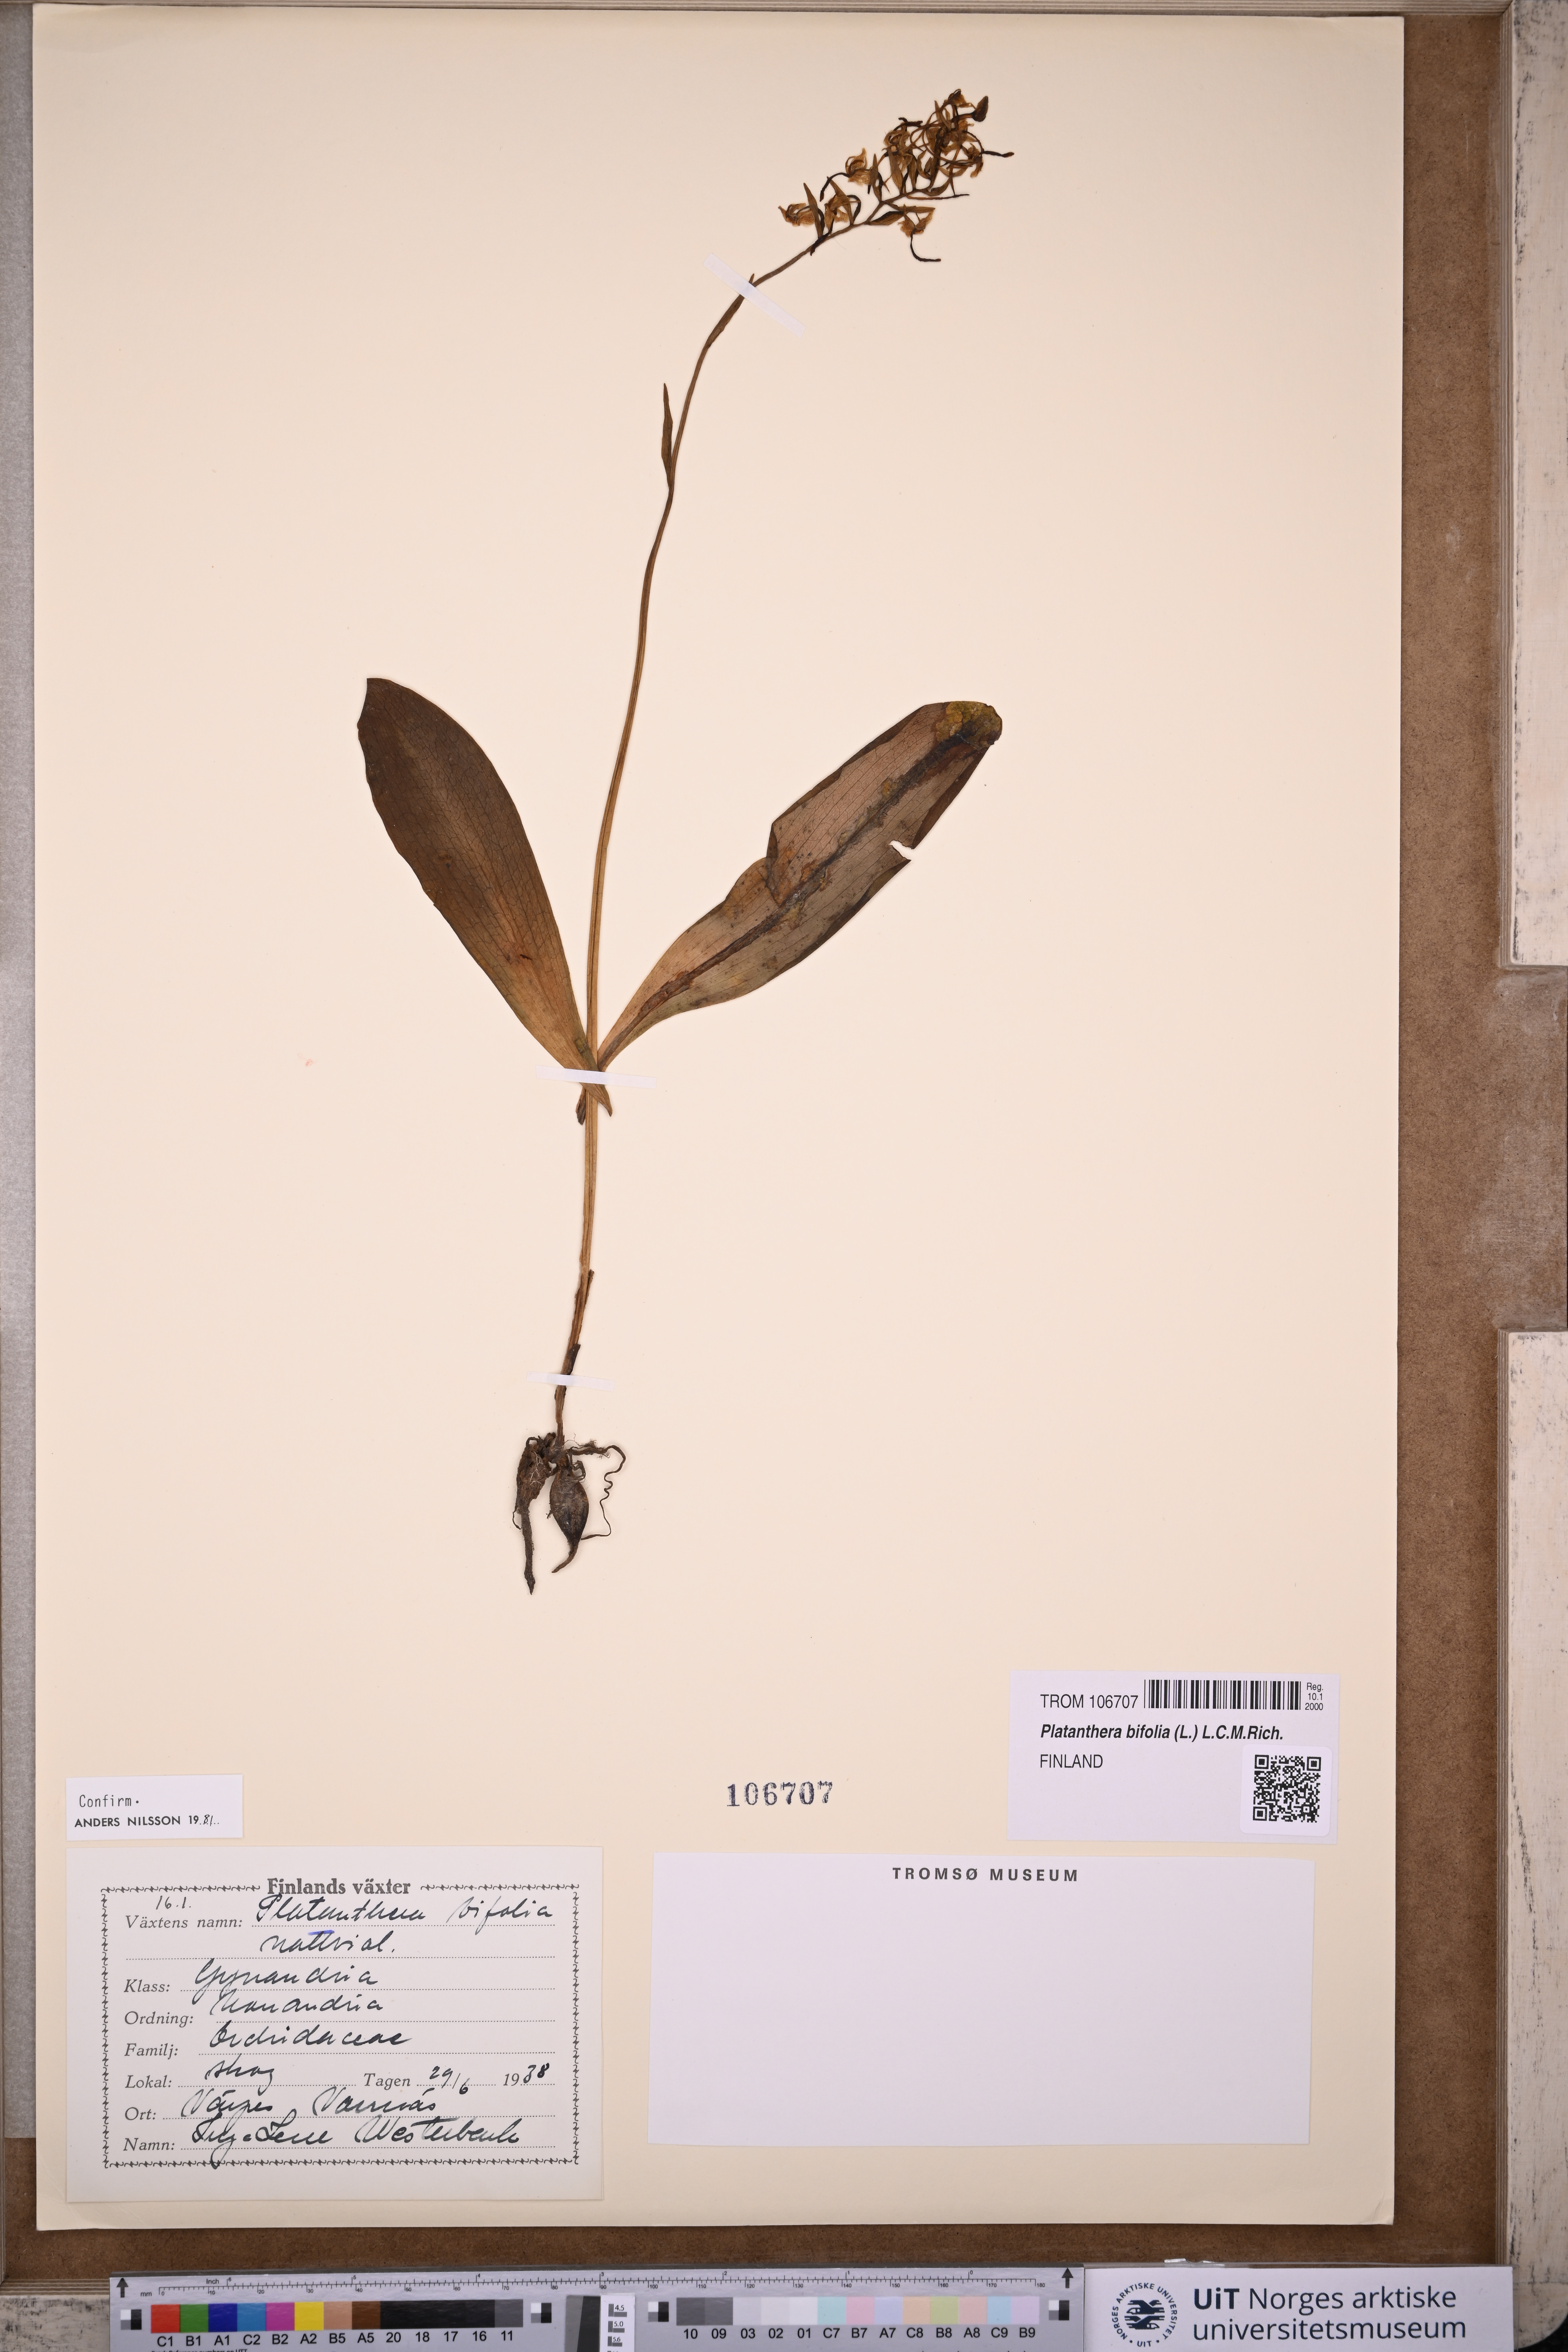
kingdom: Plantae
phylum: Tracheophyta
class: Liliopsida
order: Asparagales
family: Orchidaceae
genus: Platanthera
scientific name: Platanthera bifolia
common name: Lesser butterfly-orchid
